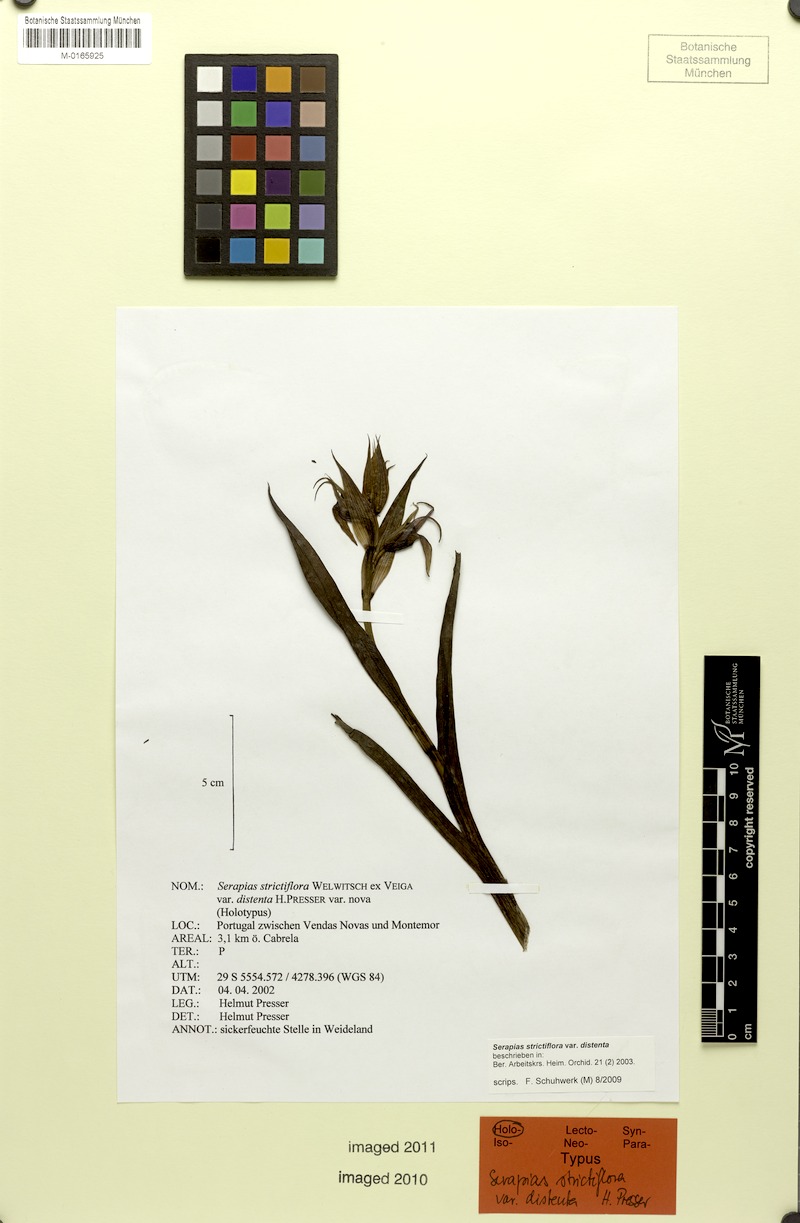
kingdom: Plantae
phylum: Tracheophyta
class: Liliopsida
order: Asparagales
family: Orchidaceae
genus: Serapias
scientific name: Serapias strictiflora
